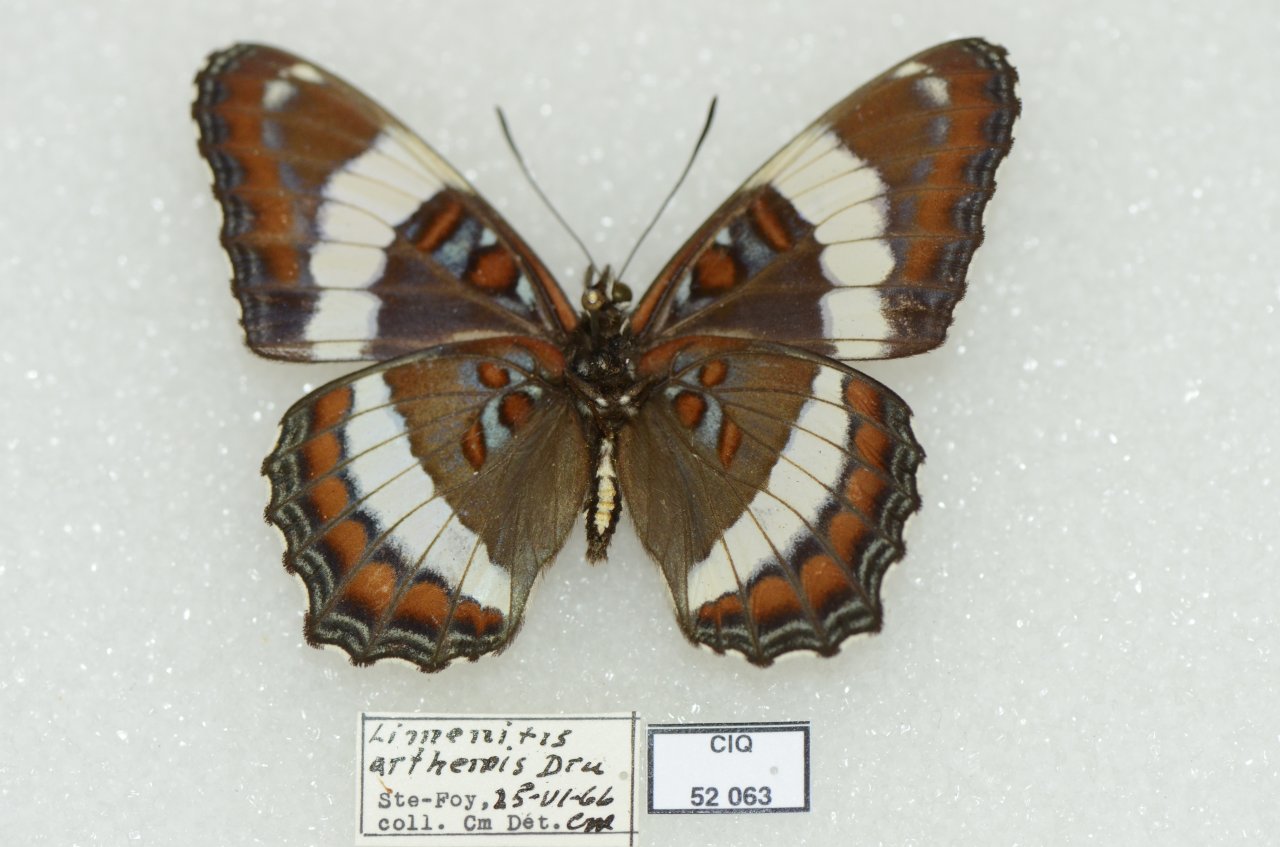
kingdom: Animalia
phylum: Arthropoda
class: Insecta
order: Lepidoptera
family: Nymphalidae
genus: Limenitis
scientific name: Limenitis arthemis
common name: Red-spotted Admiral
